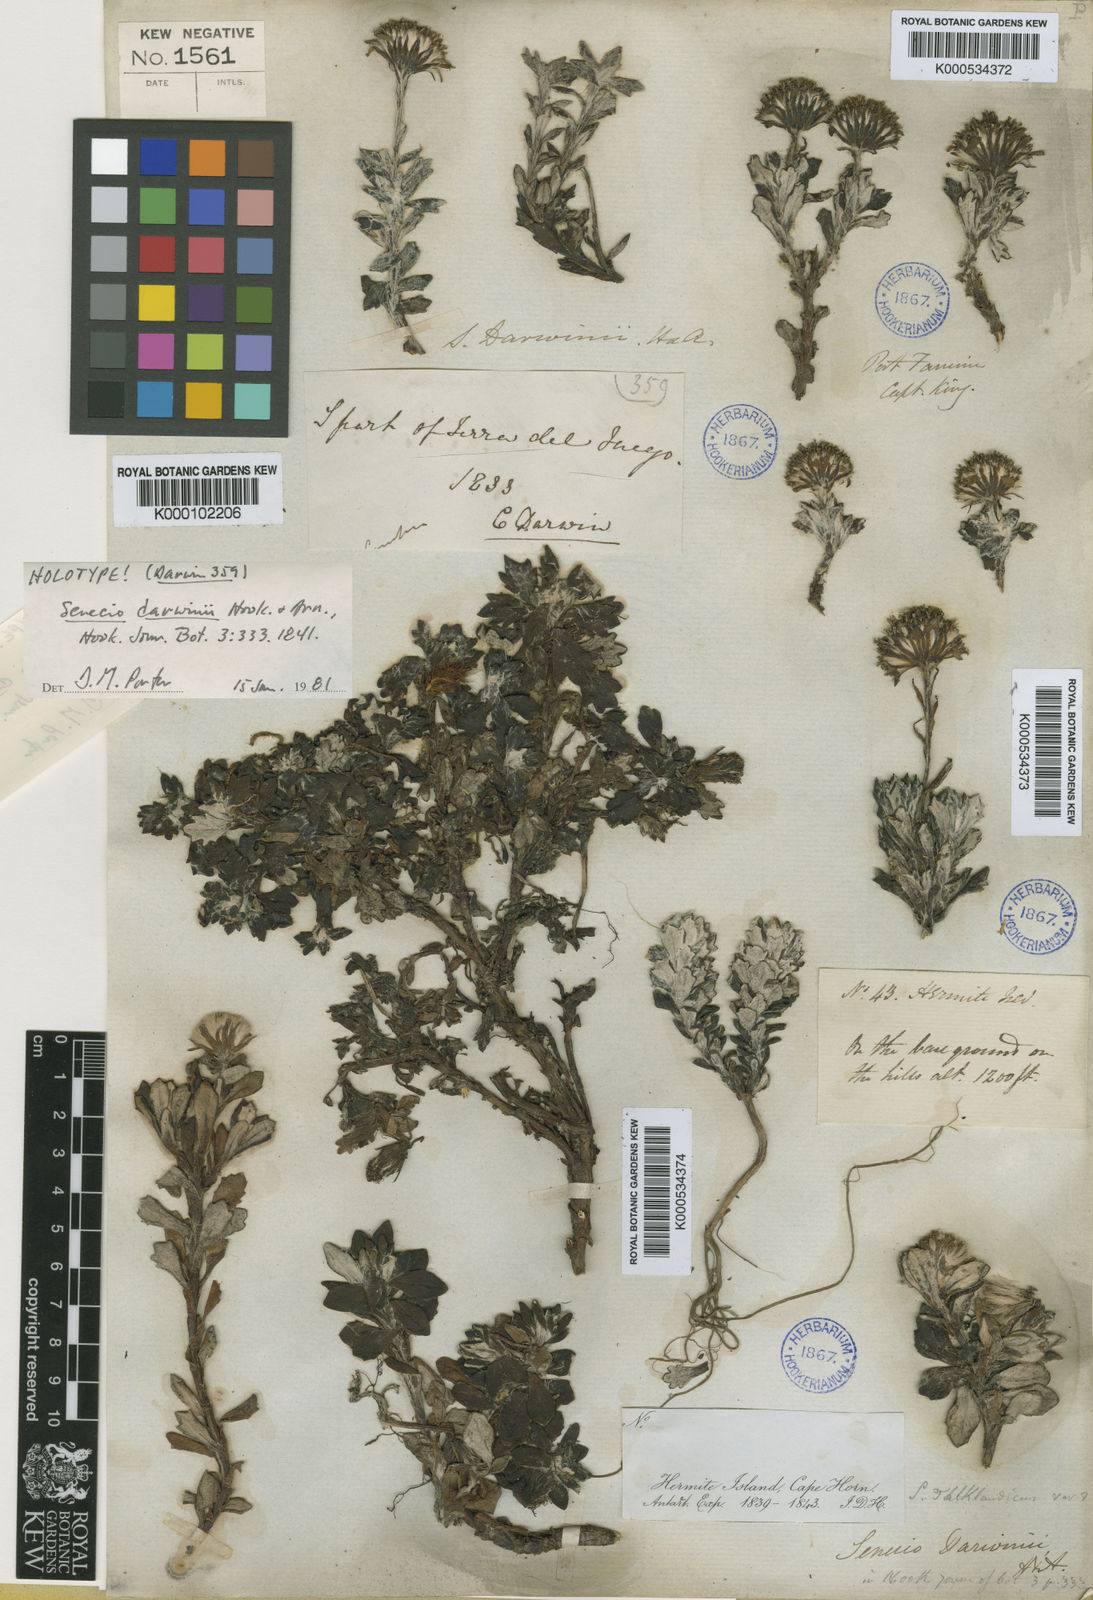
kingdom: Plantae
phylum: Tracheophyta
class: Magnoliopsida
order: Asterales
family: Asteraceae
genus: Senecio
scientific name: Senecio darwinii
